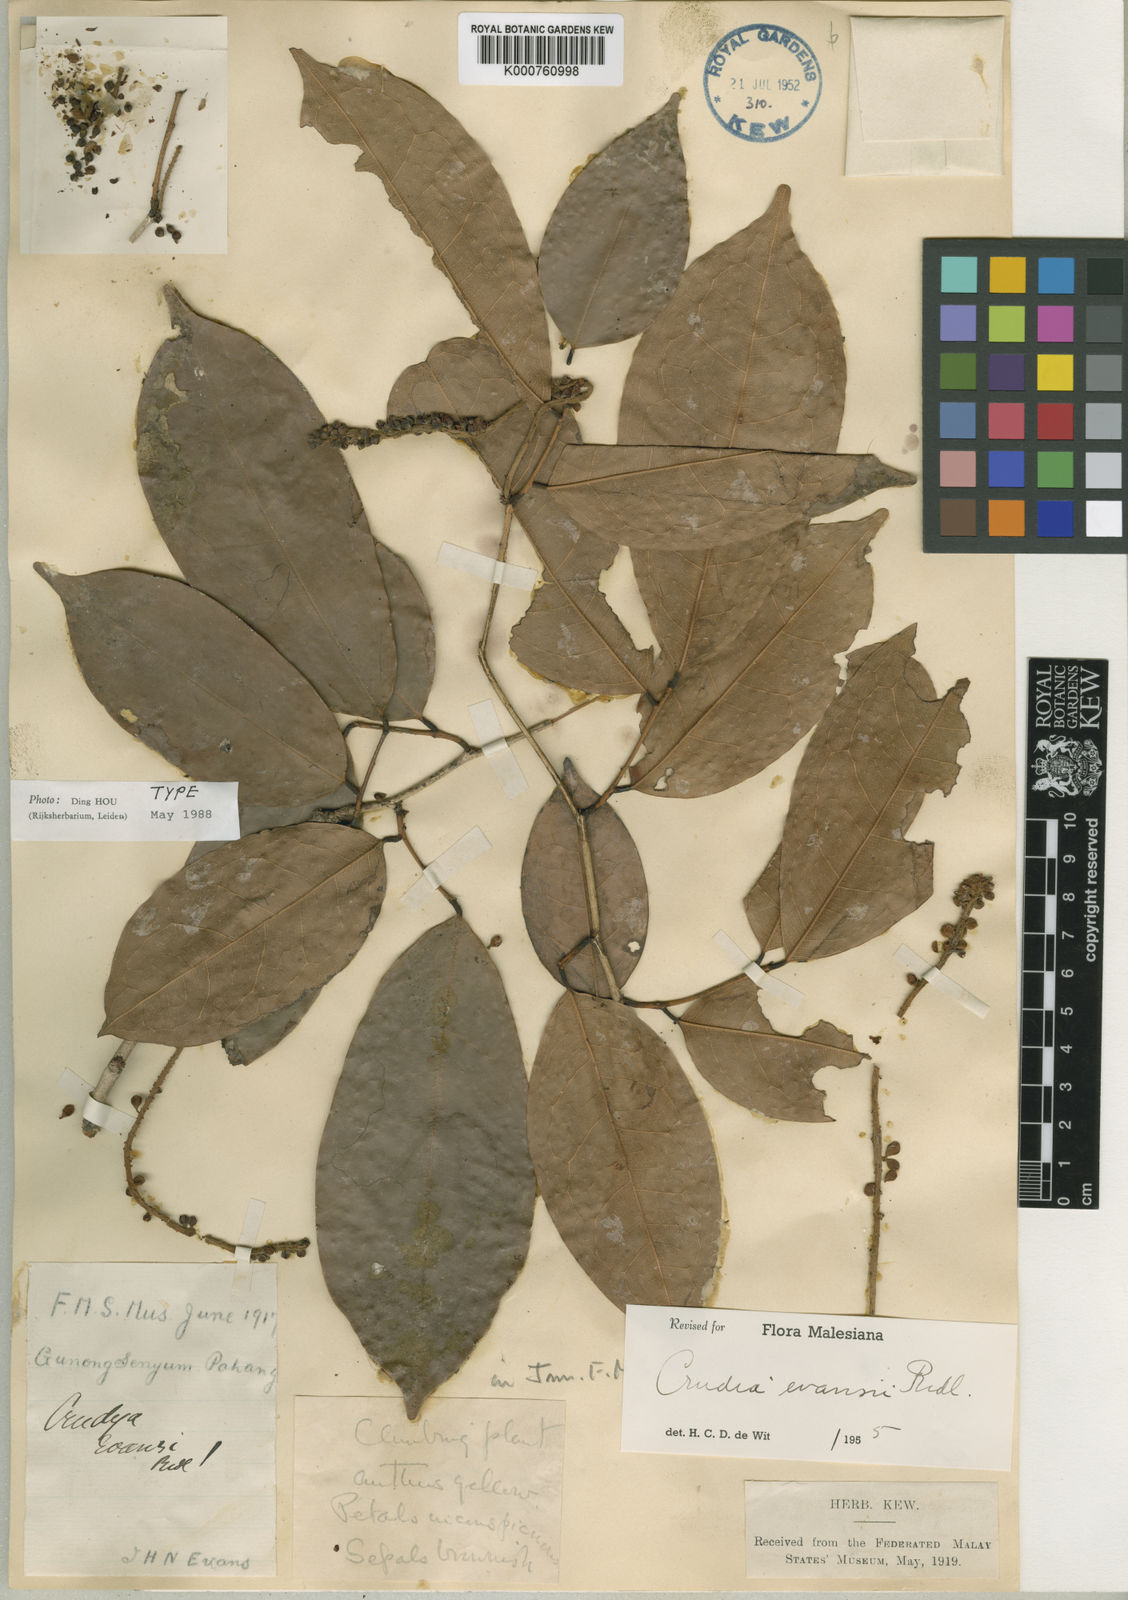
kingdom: Plantae
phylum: Tracheophyta
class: Magnoliopsida
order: Fabales
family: Fabaceae
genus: Crudia
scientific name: Crudia gracilis
